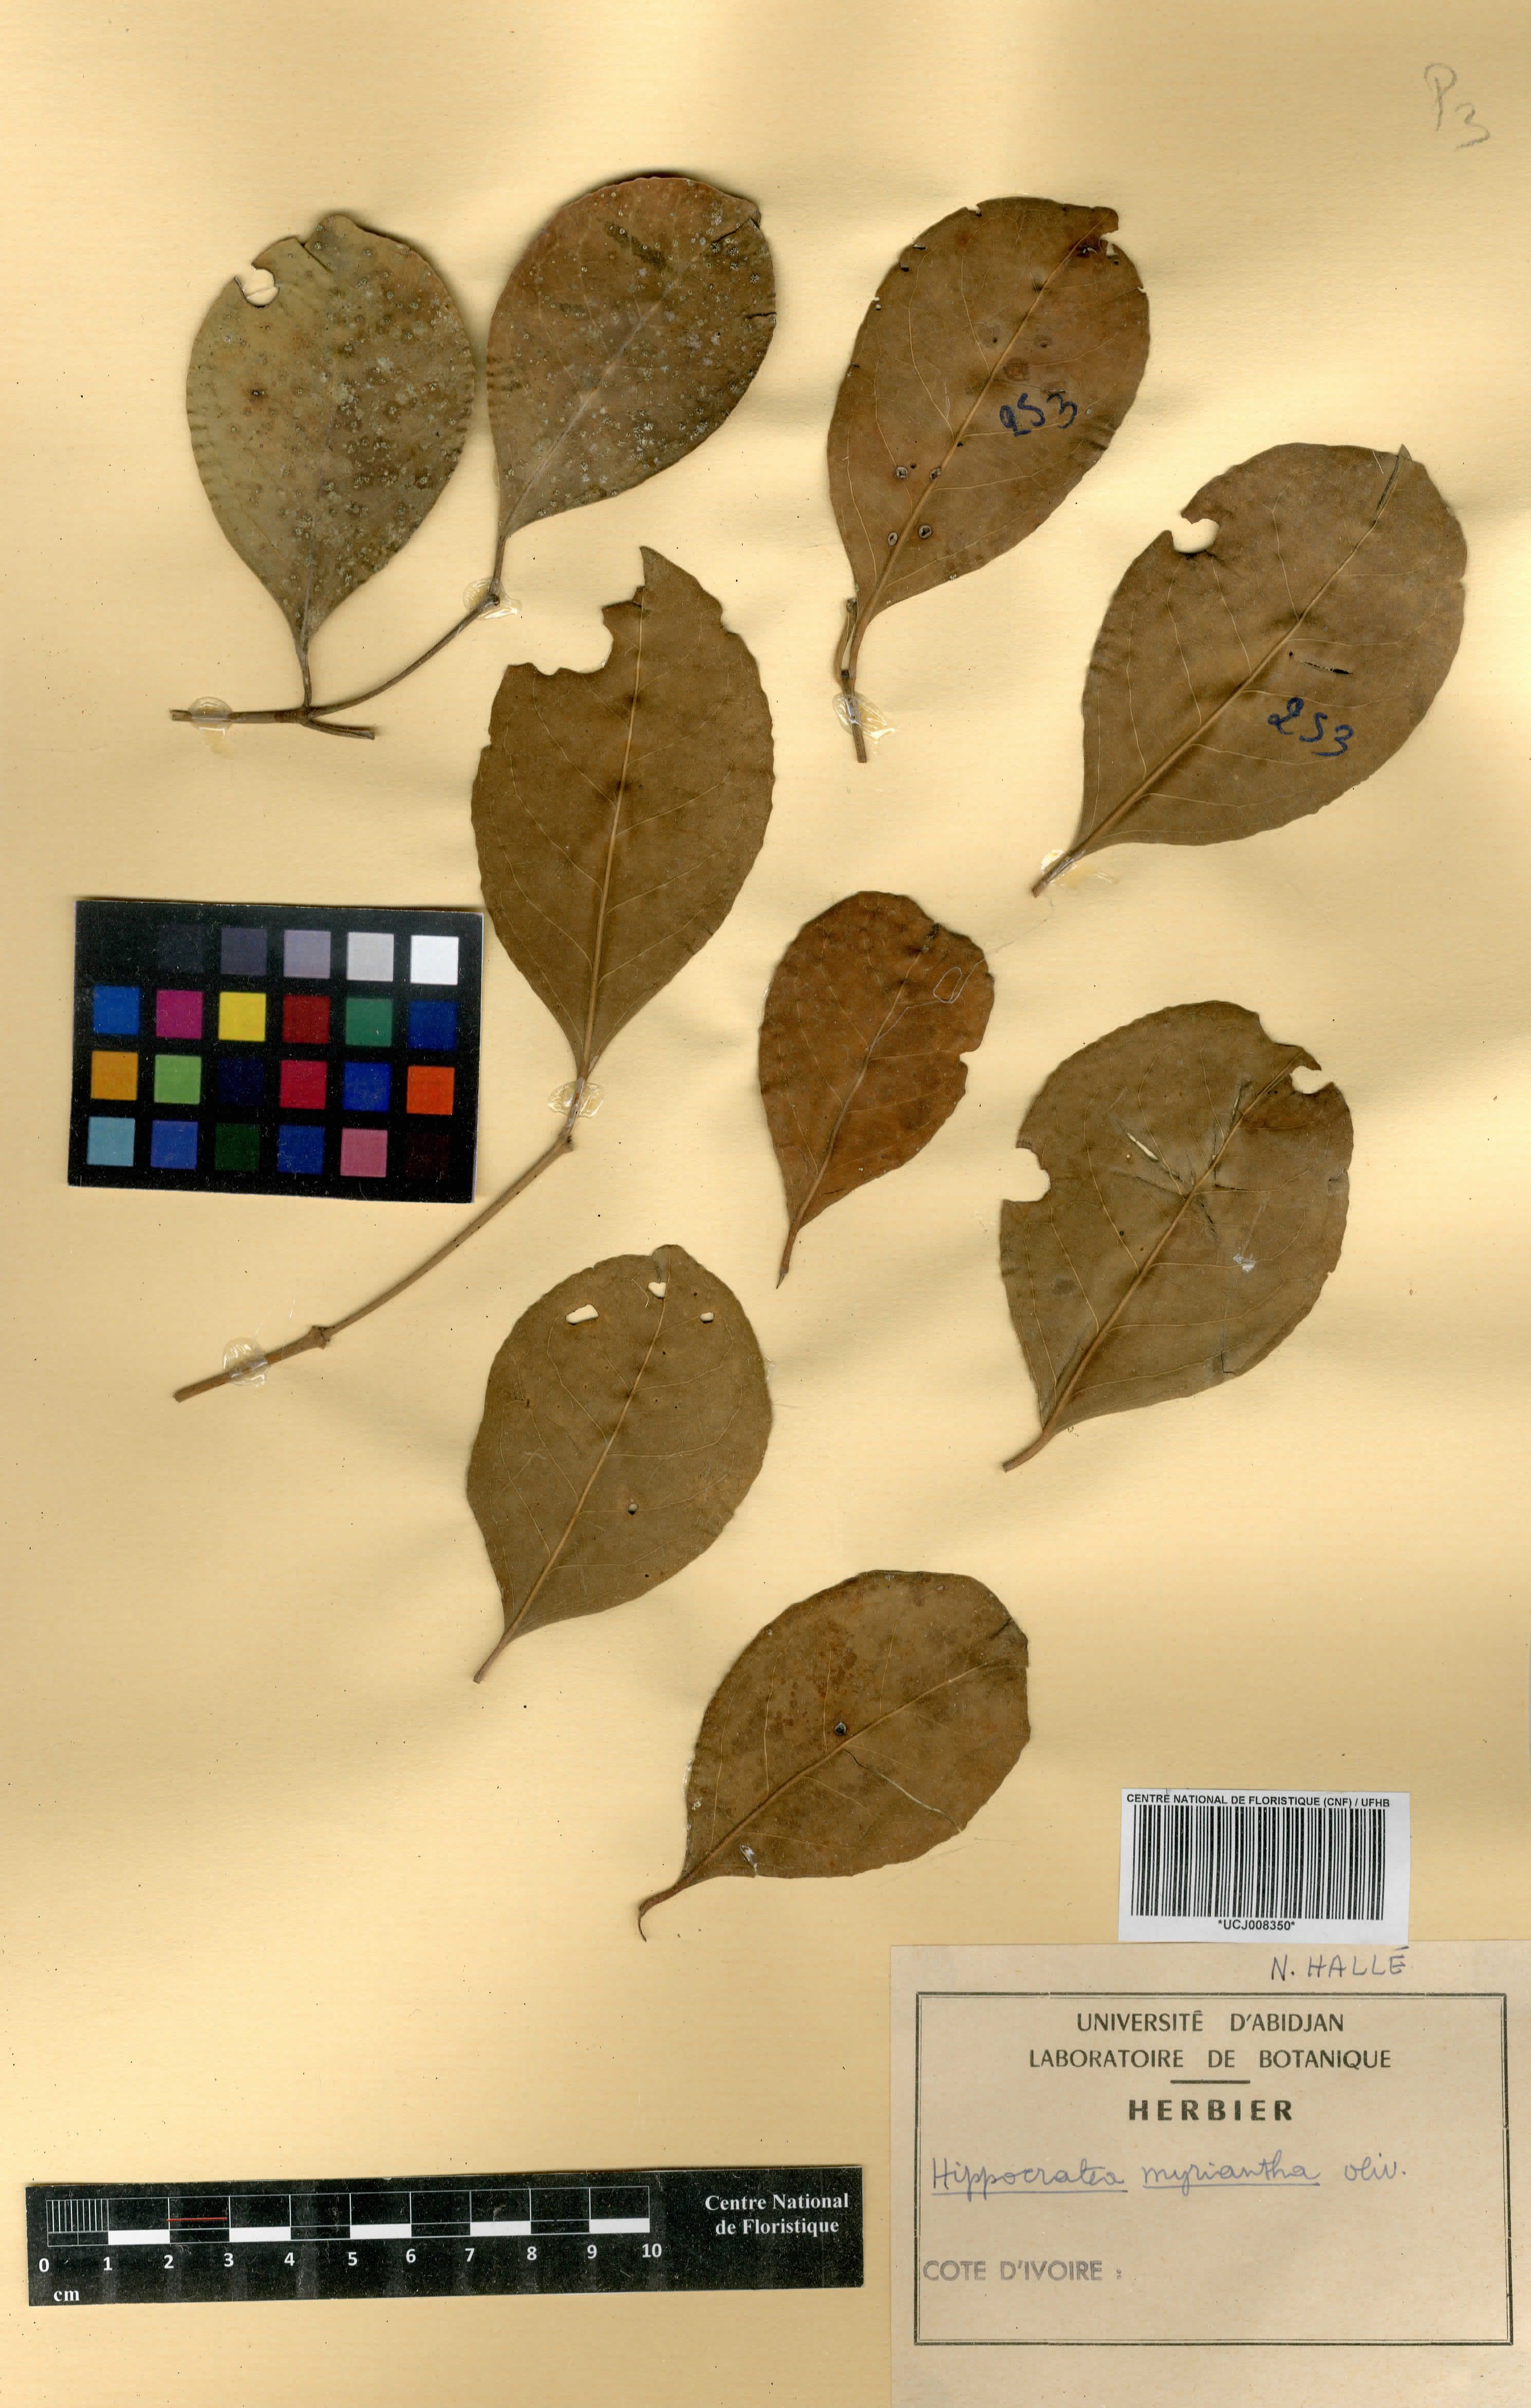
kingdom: Plantae
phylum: Tracheophyta
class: Magnoliopsida
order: Celastrales
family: Celastraceae
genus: Hippocratea
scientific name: Hippocratea myriantha
